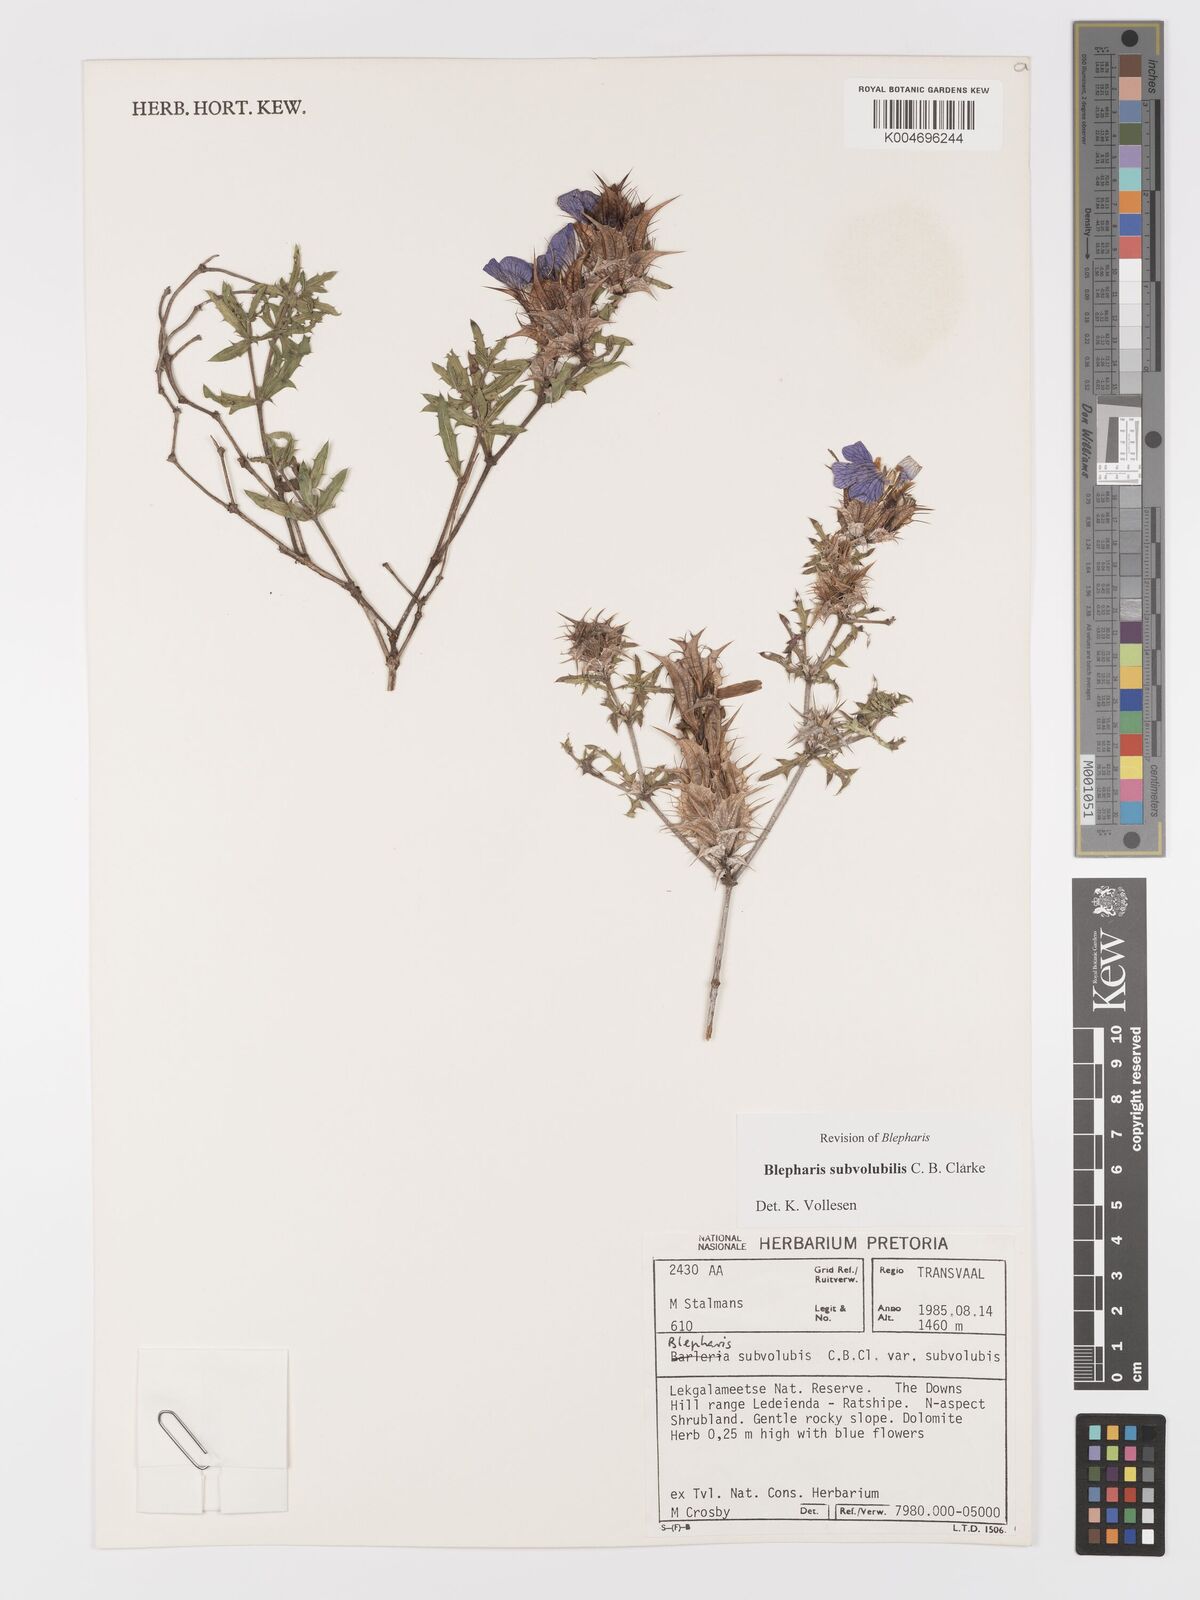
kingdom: Plantae
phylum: Tracheophyta
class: Magnoliopsida
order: Lamiales
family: Acanthaceae
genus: Blepharis
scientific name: Blepharis subvolubilis
